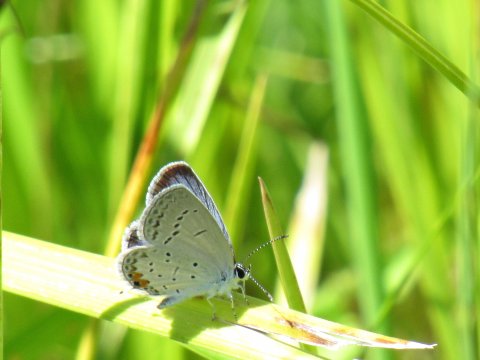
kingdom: Animalia
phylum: Arthropoda
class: Insecta
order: Lepidoptera
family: Lycaenidae
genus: Elkalyce
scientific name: Elkalyce comyntas
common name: Eastern Tailed-Blue
